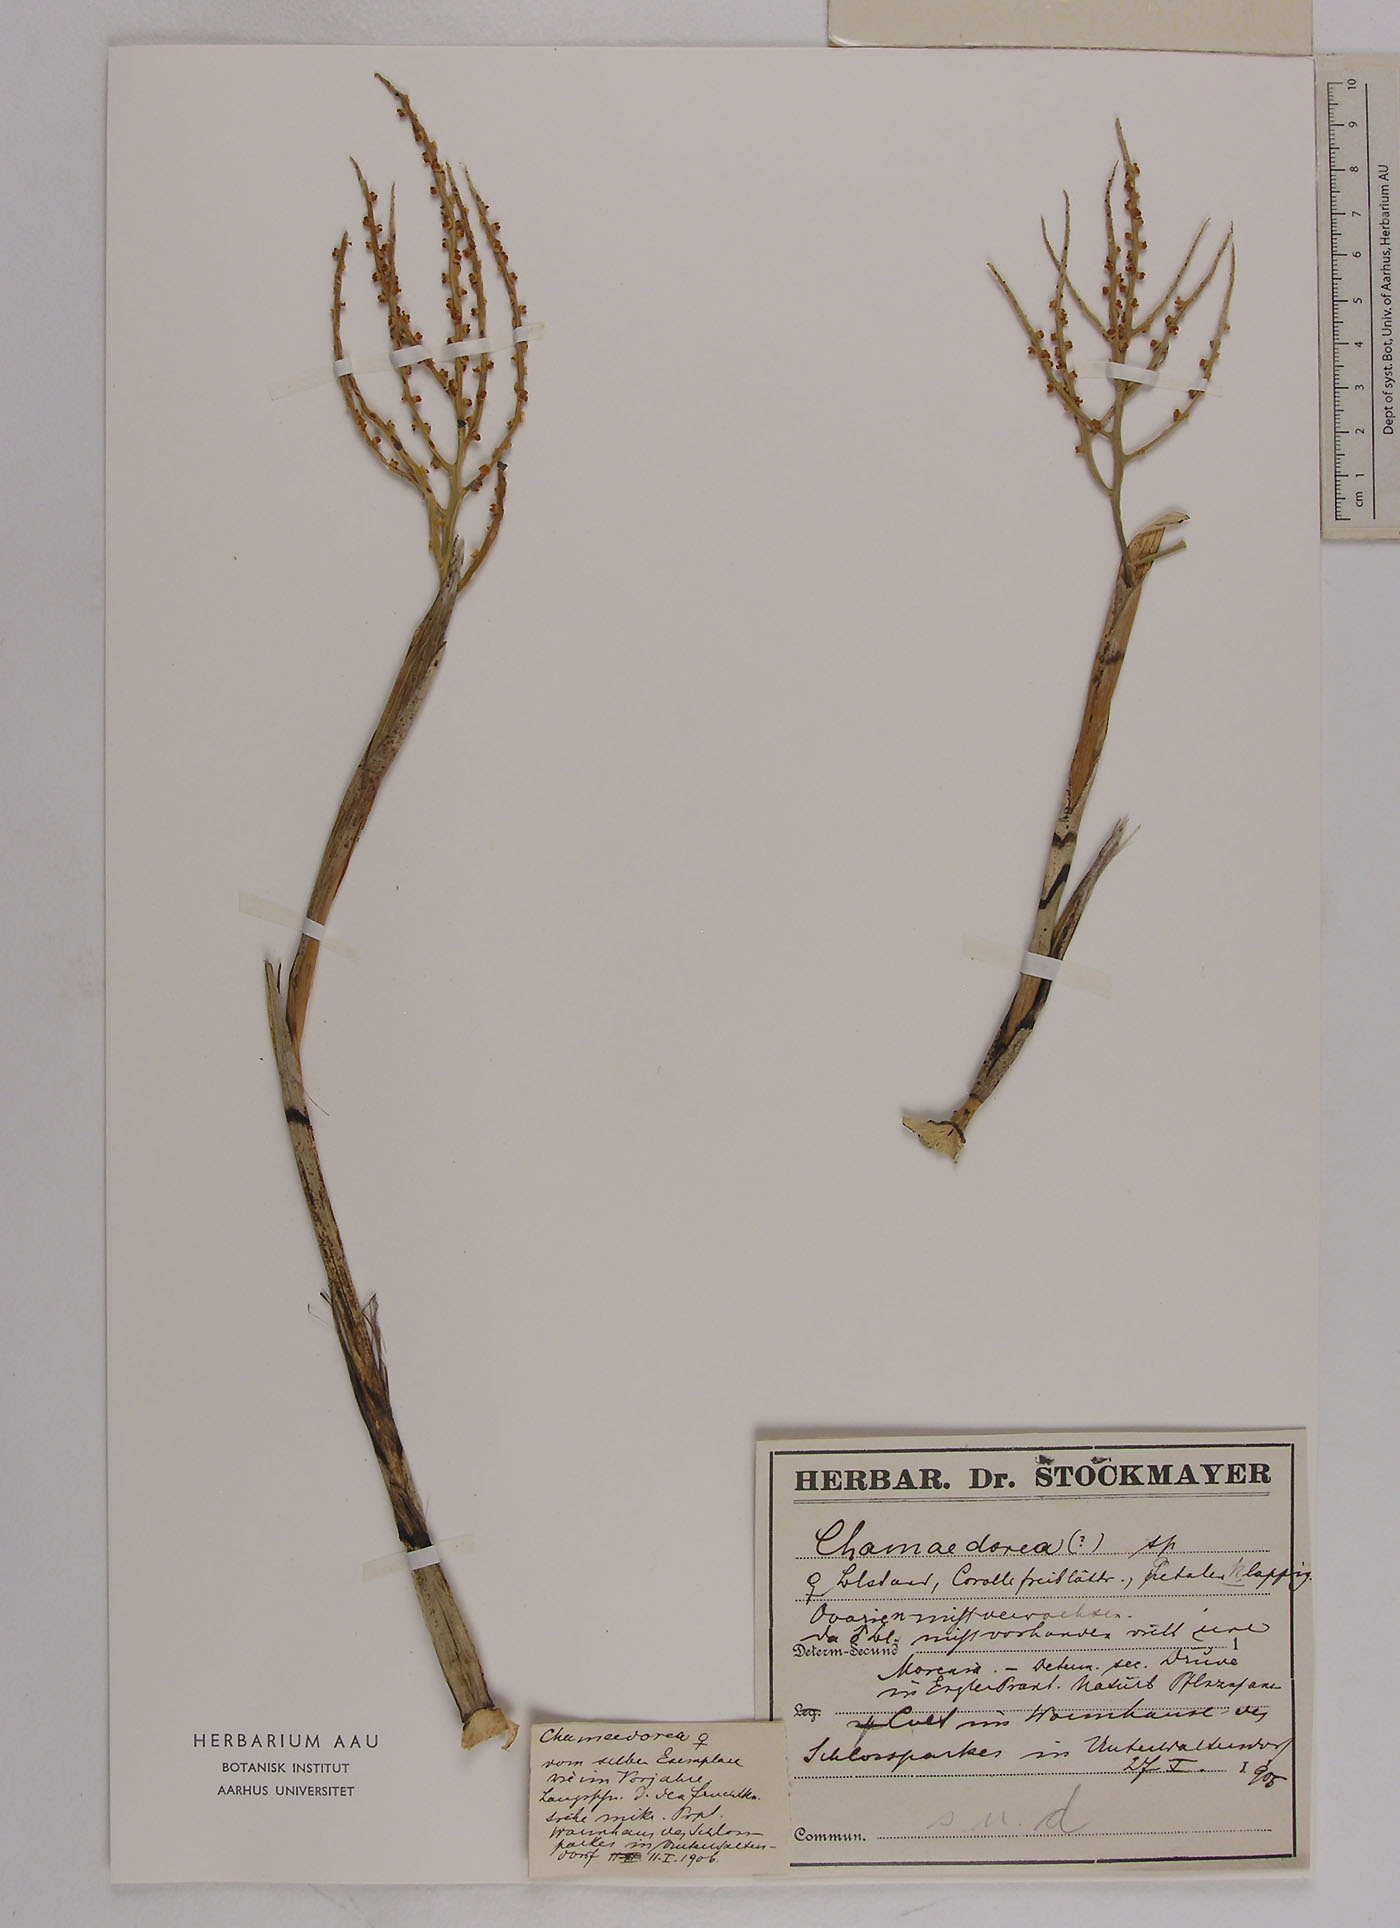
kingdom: Plantae
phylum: Tracheophyta
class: Liliopsida
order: Arecales
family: Arecaceae
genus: Chamaedorea
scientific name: Chamaedorea
